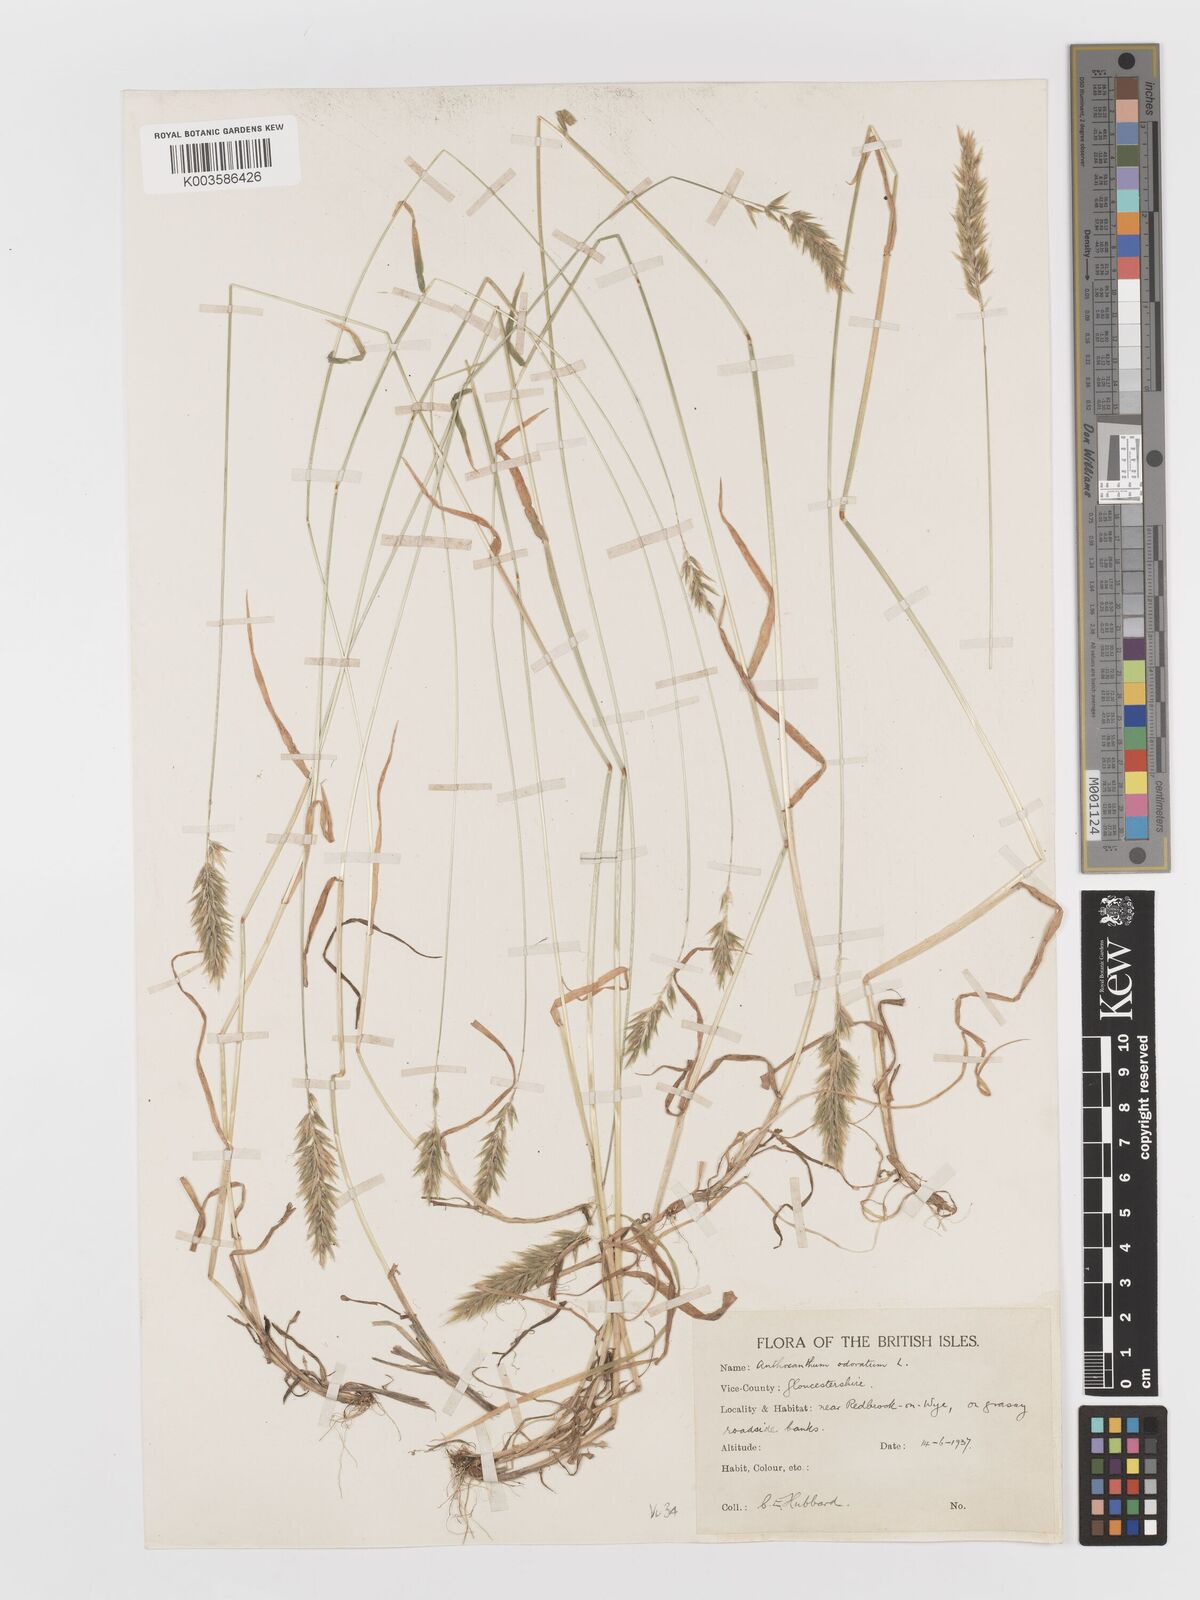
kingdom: Plantae
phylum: Tracheophyta
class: Liliopsida
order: Poales
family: Poaceae
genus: Anthoxanthum
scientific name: Anthoxanthum odoratum
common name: Sweet vernalgrass
